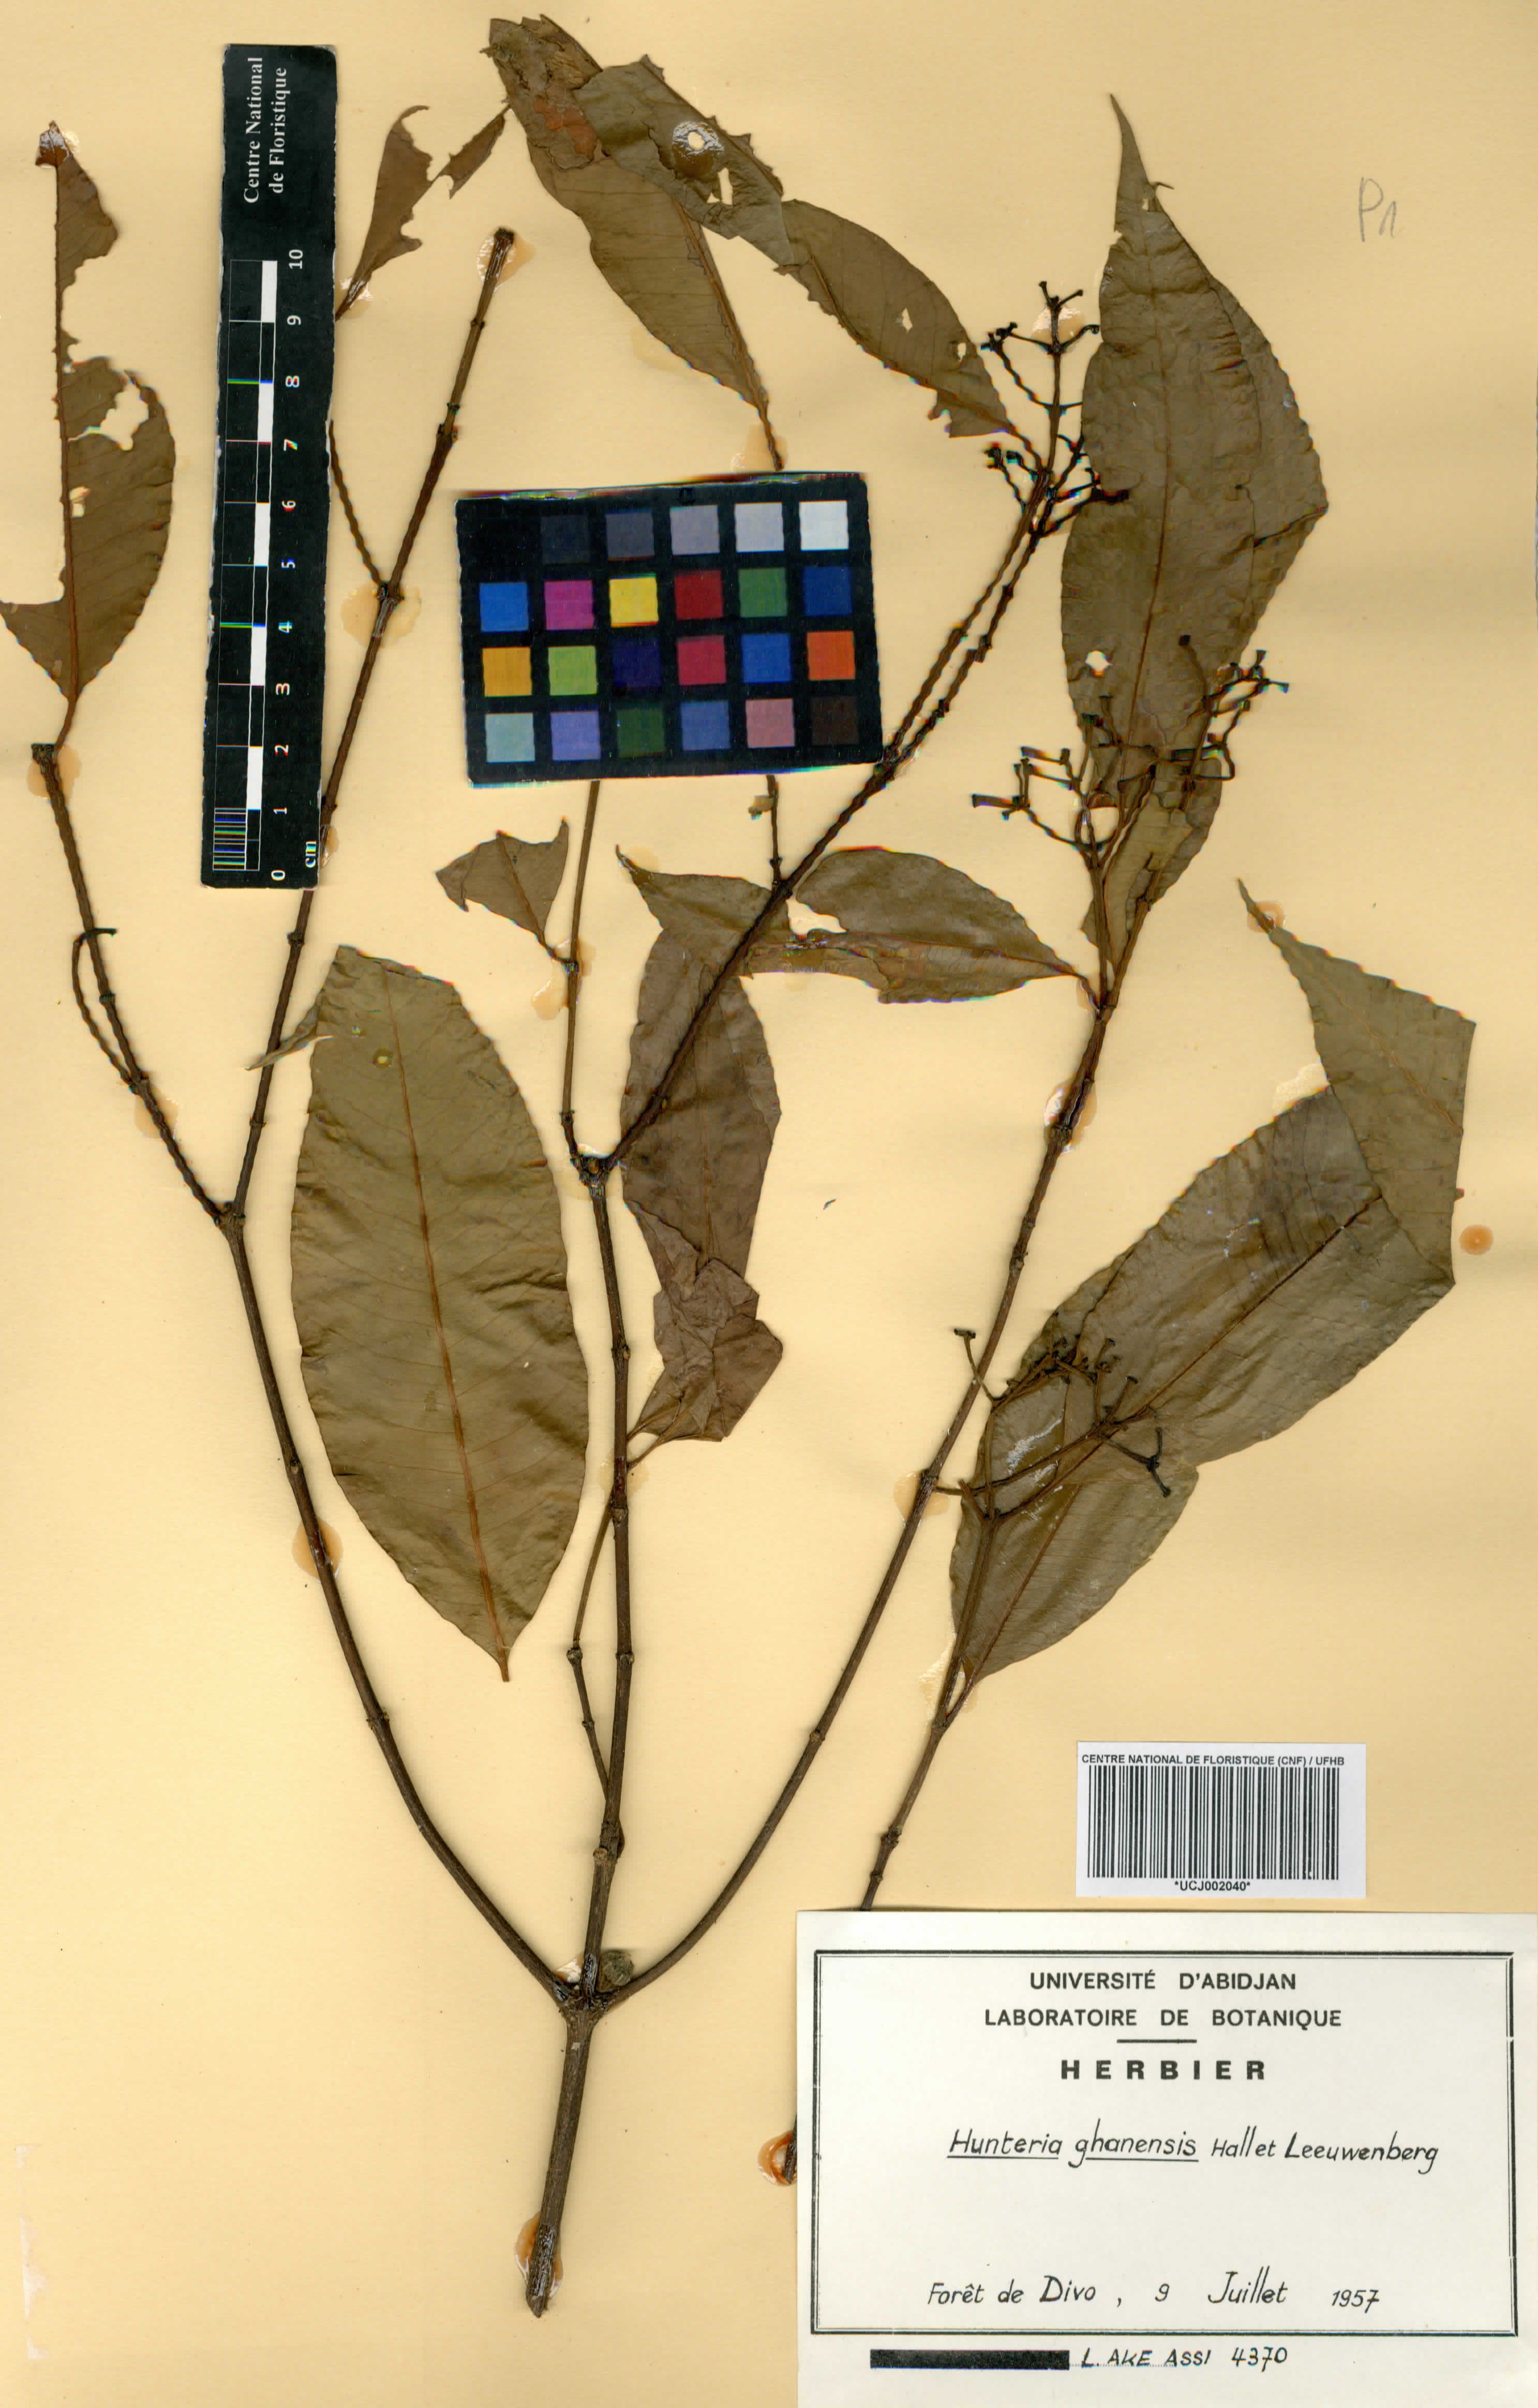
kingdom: Plantae
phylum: Tracheophyta
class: Magnoliopsida
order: Gentianales
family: Apocynaceae
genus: Hunteria
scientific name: Hunteria ghanensis
